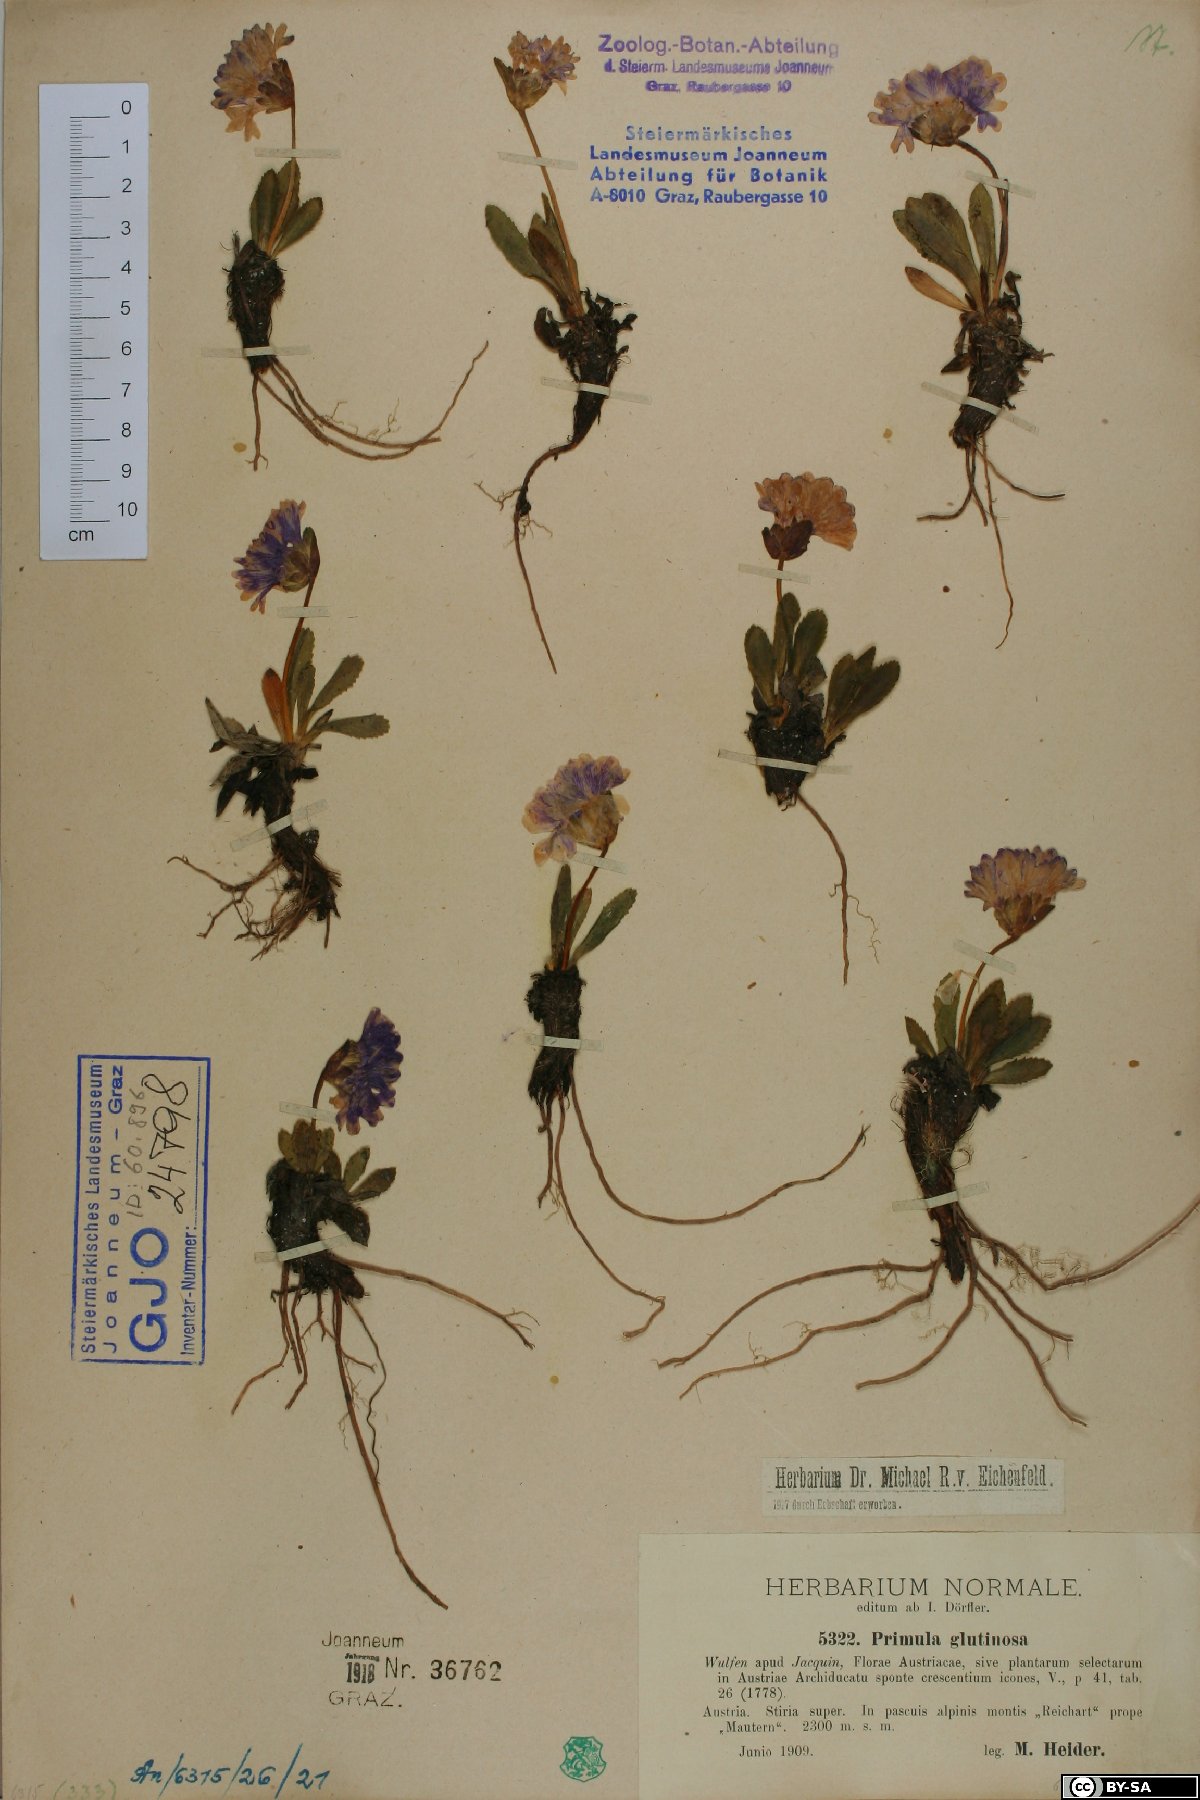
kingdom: Plantae
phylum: Tracheophyta
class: Magnoliopsida
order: Ericales
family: Primulaceae
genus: Primula
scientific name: Primula glutinosa
